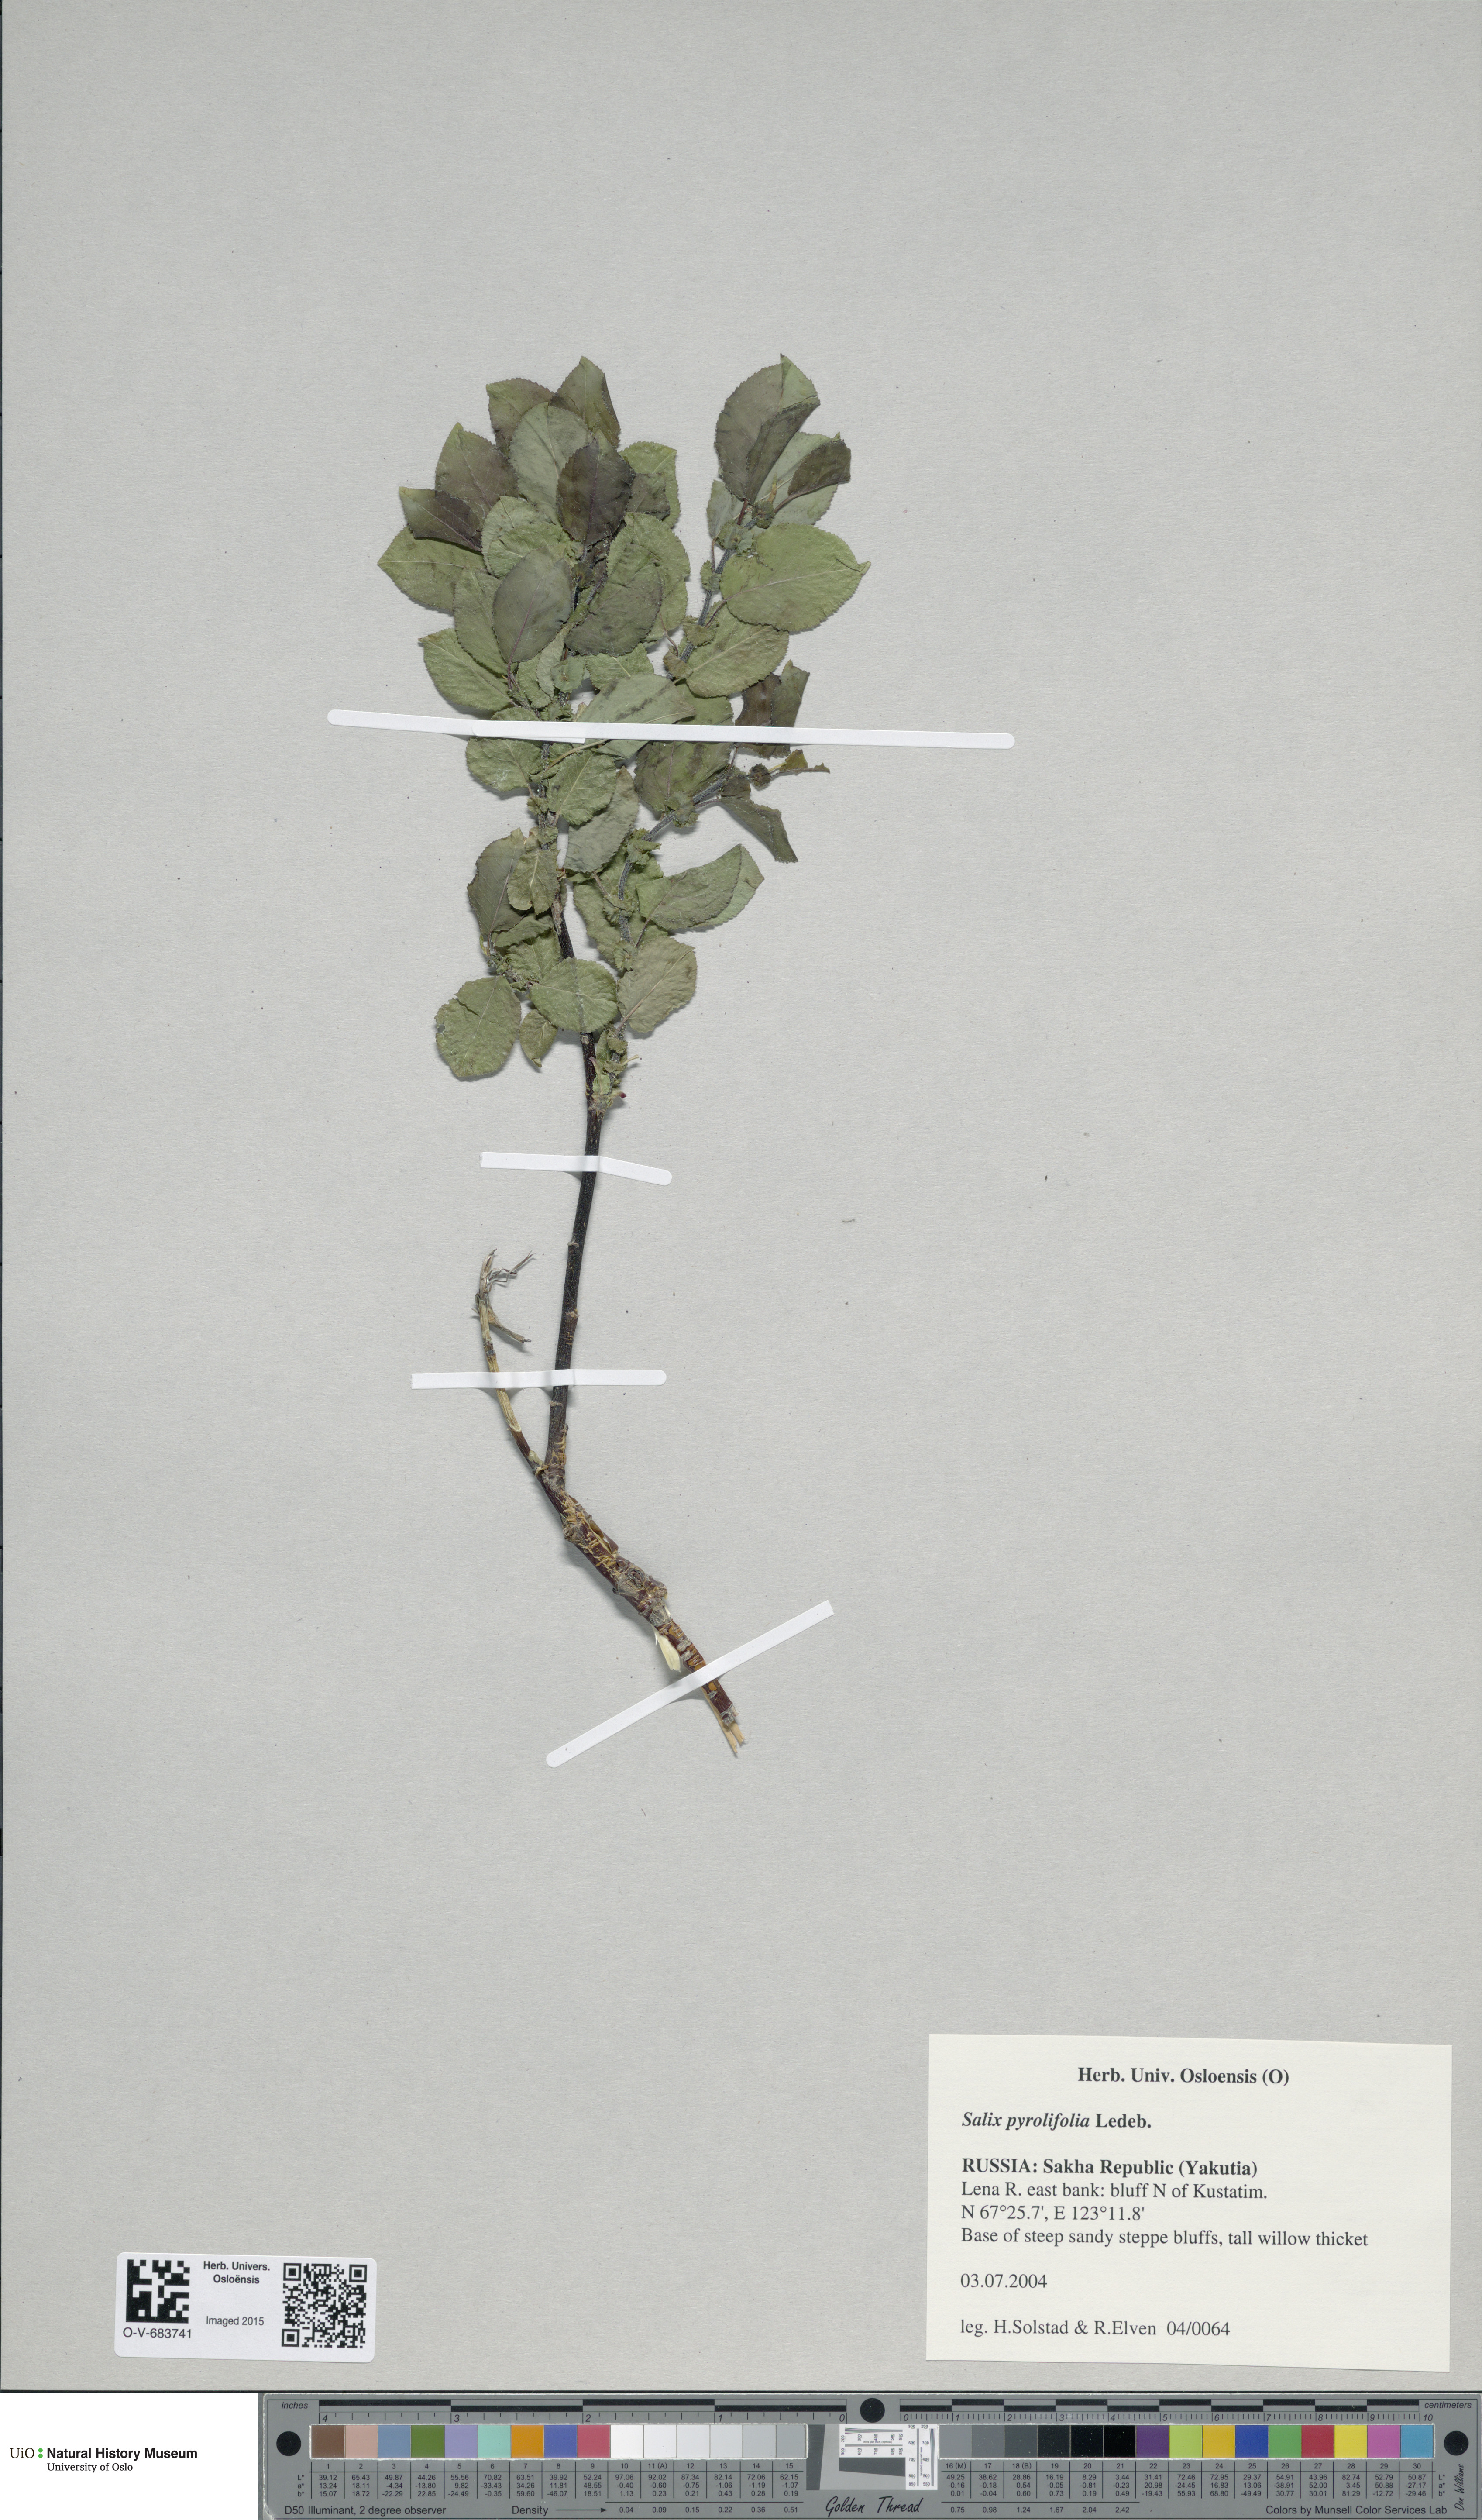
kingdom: Plantae
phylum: Tracheophyta
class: Magnoliopsida
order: Malpighiales
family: Salicaceae
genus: Salix
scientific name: Salix pyrolifolia
